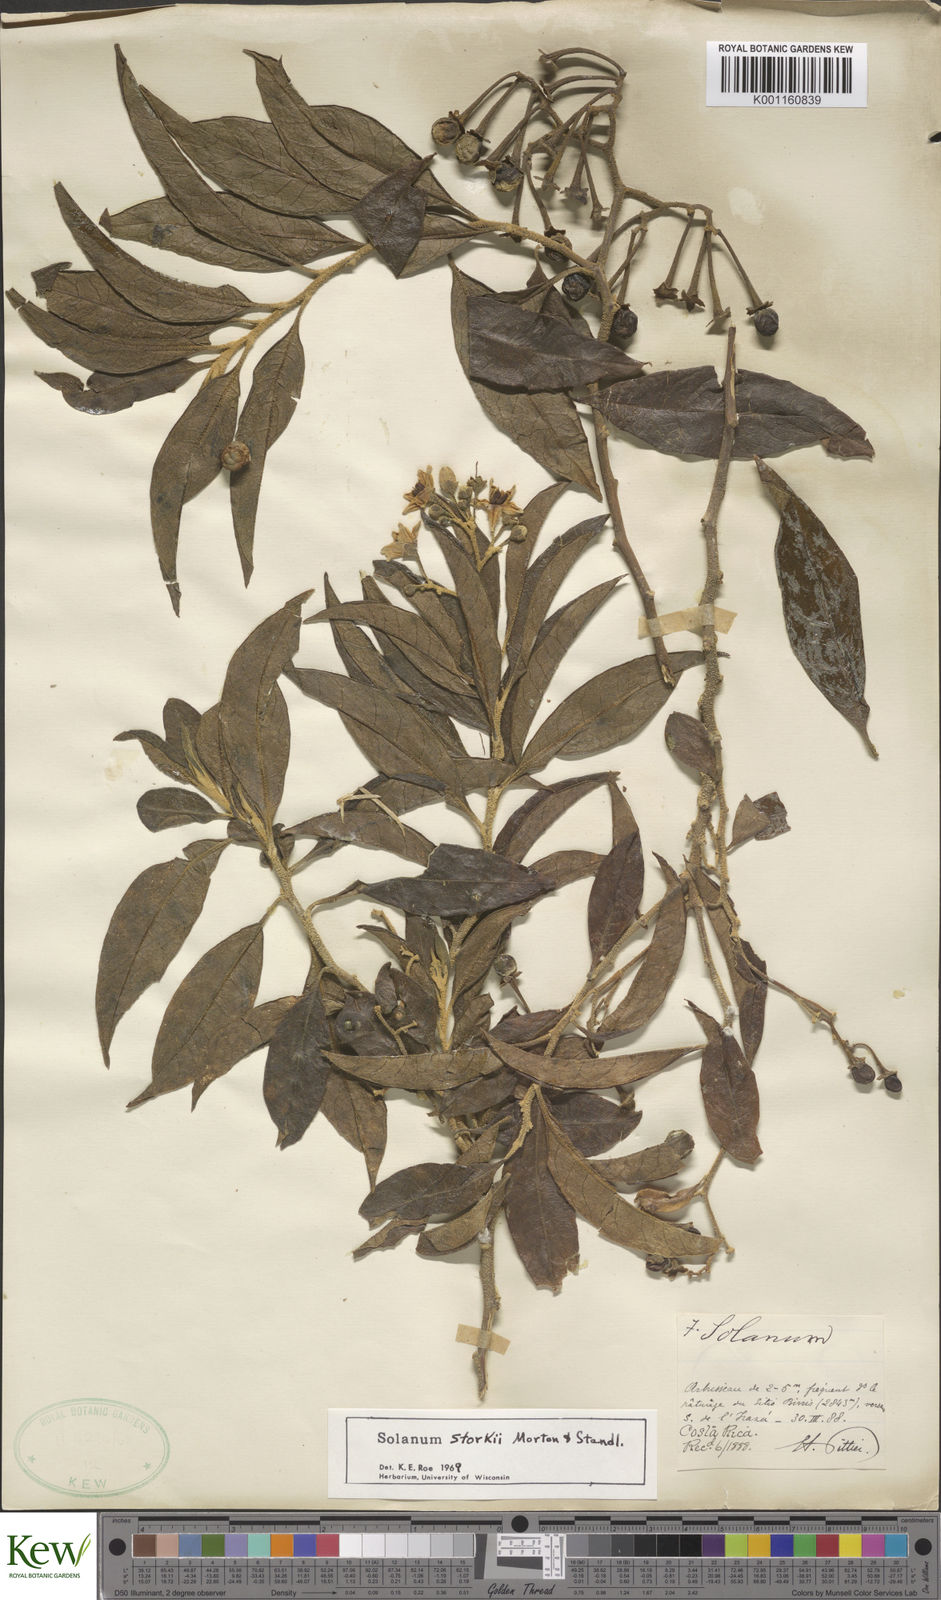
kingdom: Plantae
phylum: Tracheophyta
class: Magnoliopsida
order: Solanales
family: Solanaceae
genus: Solanum
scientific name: Solanum storkii
